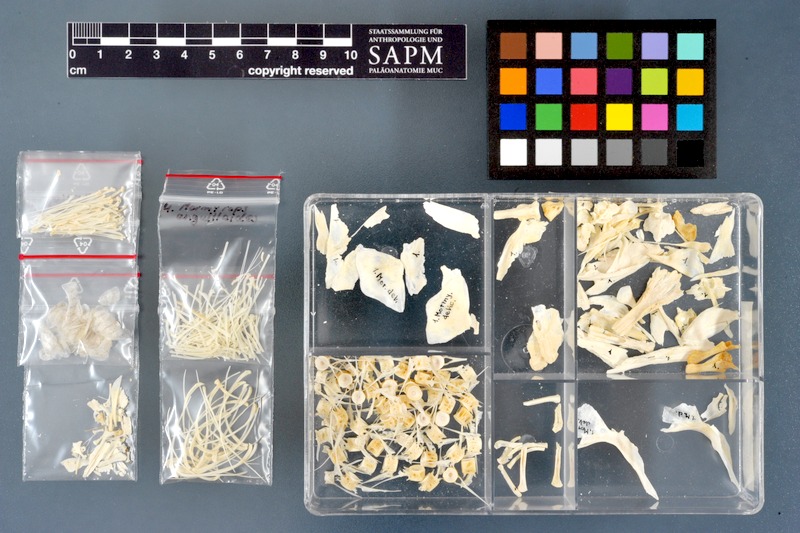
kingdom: Animalia
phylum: Chordata
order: Osteoglossiformes
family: Mormyridae
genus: Mormyrops
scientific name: Mormyrops anguilloides
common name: Cornish jack
